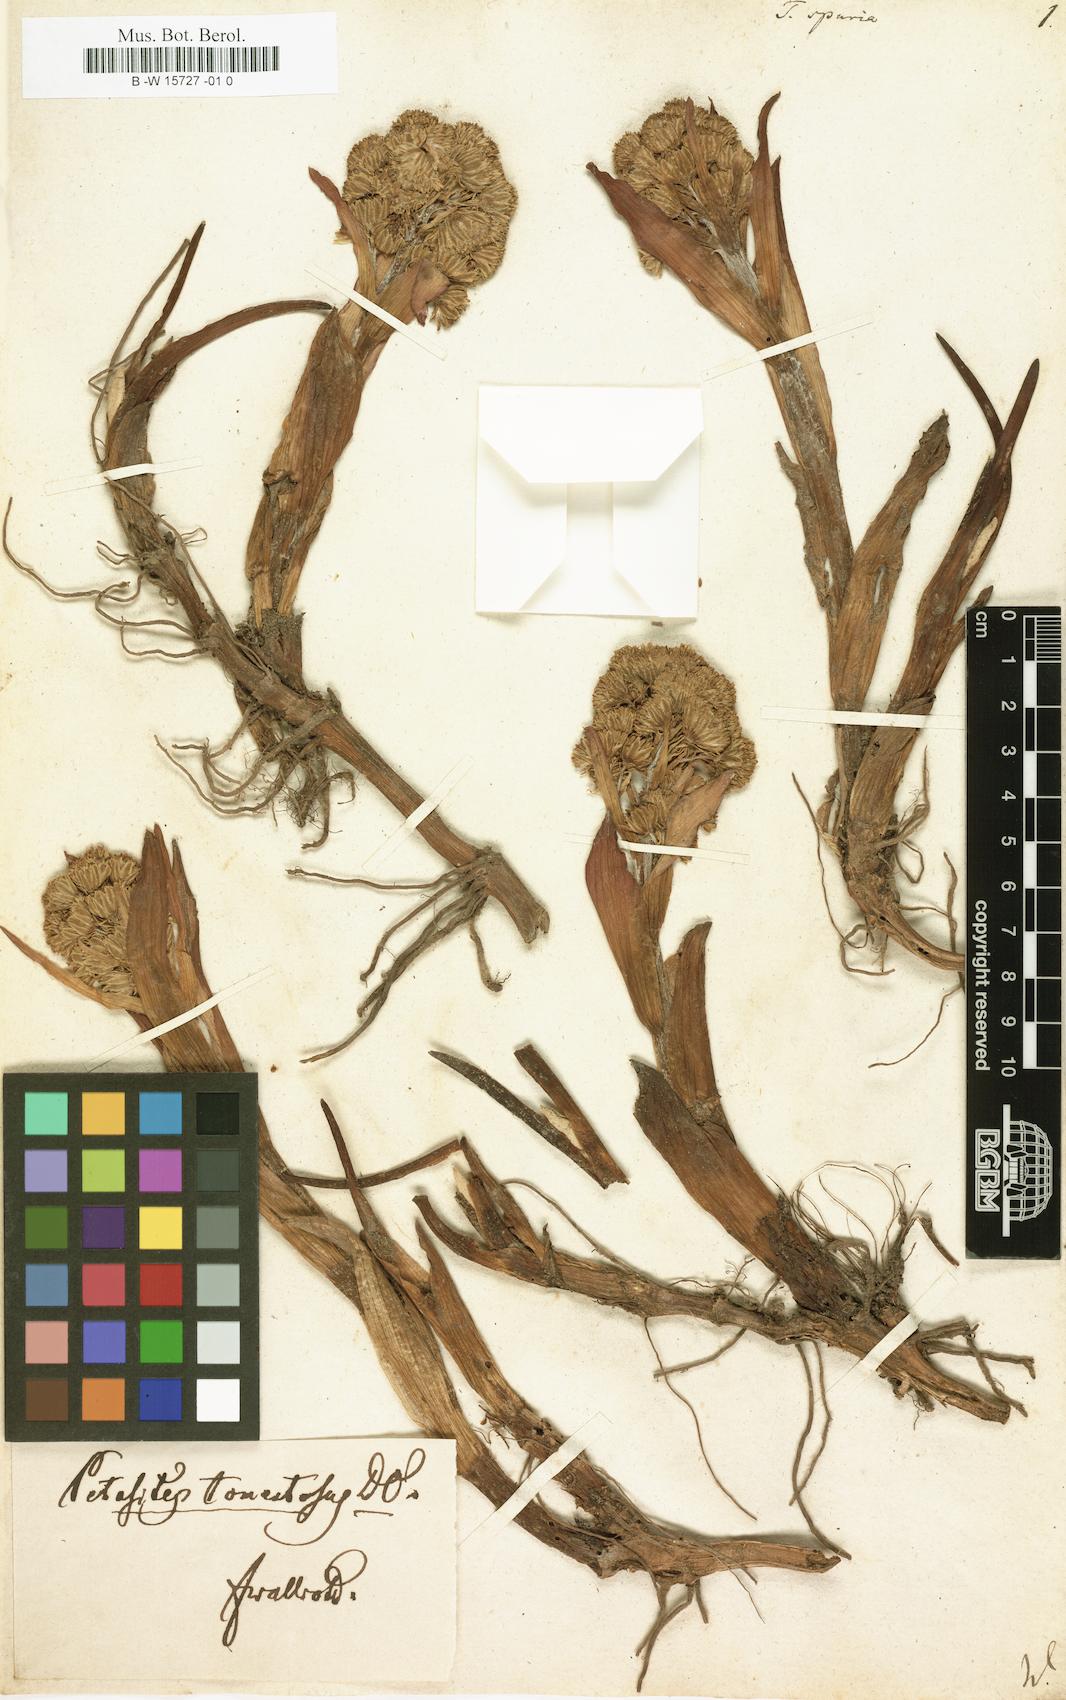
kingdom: Plantae
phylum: Tracheophyta
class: Magnoliopsida
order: Asterales
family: Asteraceae
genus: Petasites
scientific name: Petasites
